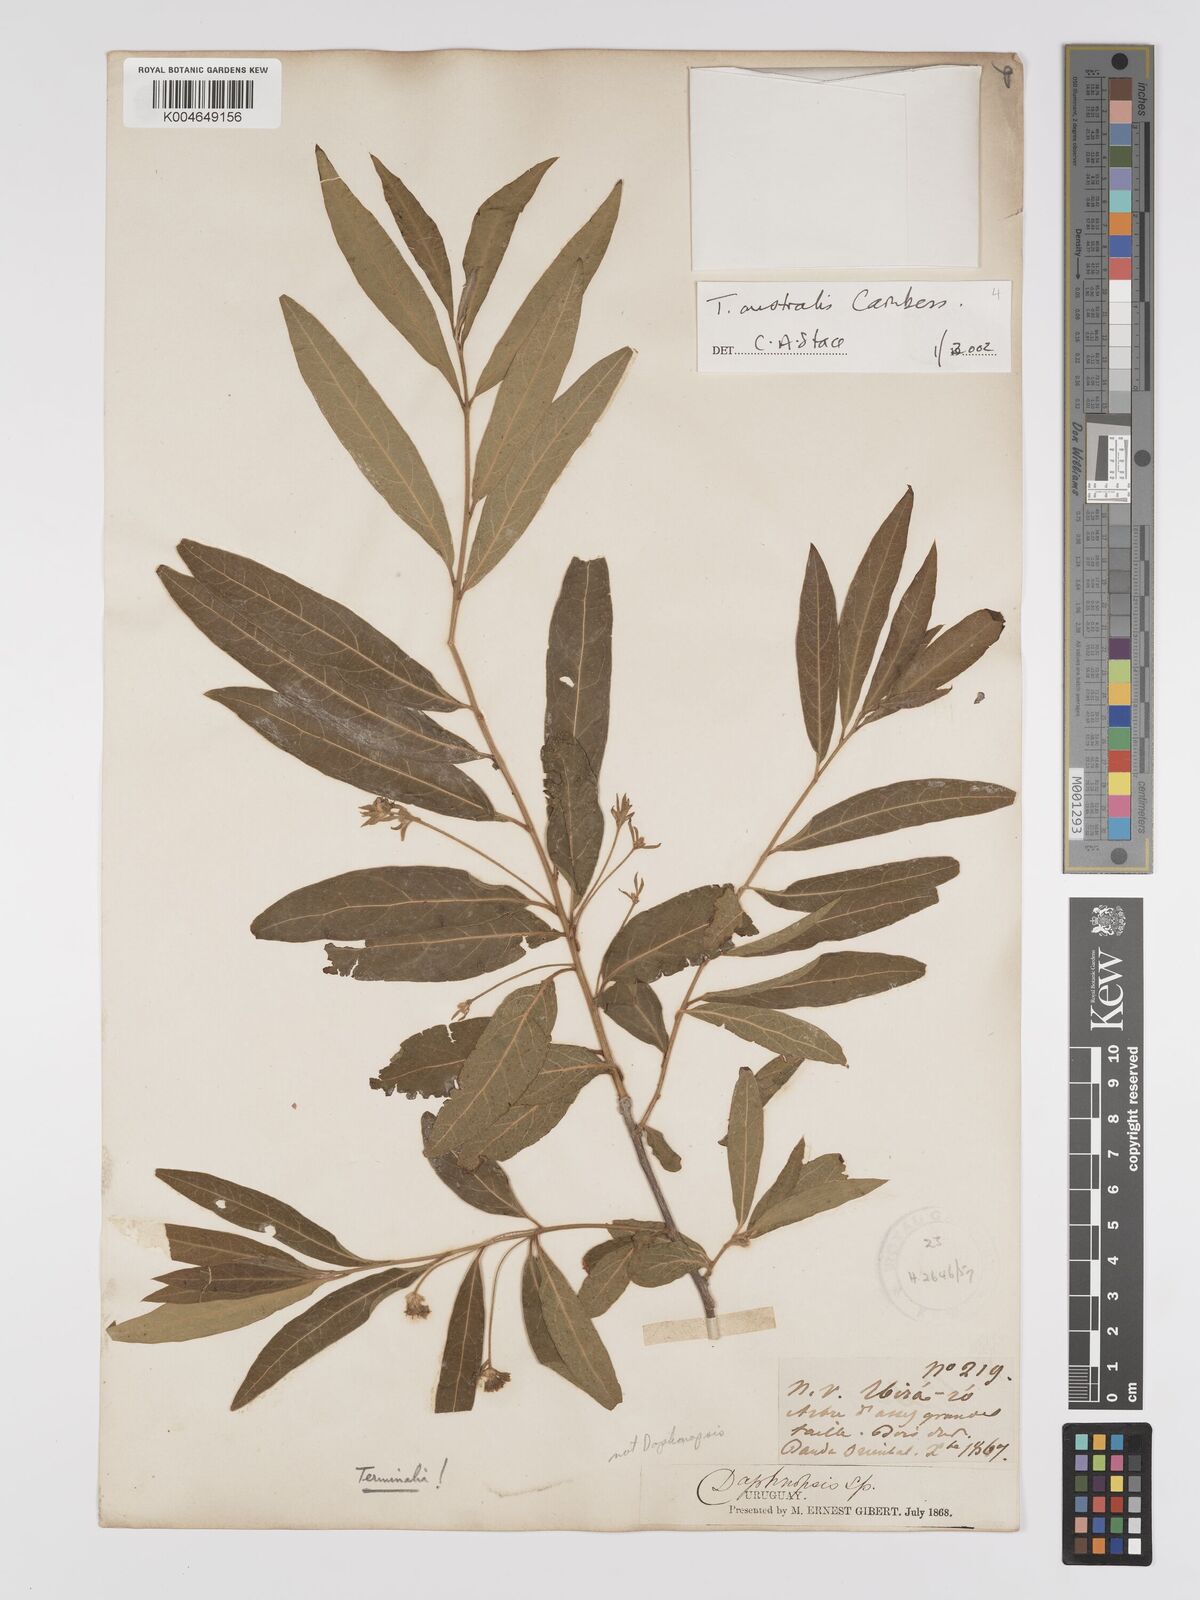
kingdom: Plantae
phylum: Tracheophyta
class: Magnoliopsida
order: Myrtales
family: Combretaceae
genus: Terminalia
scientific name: Terminalia australis
